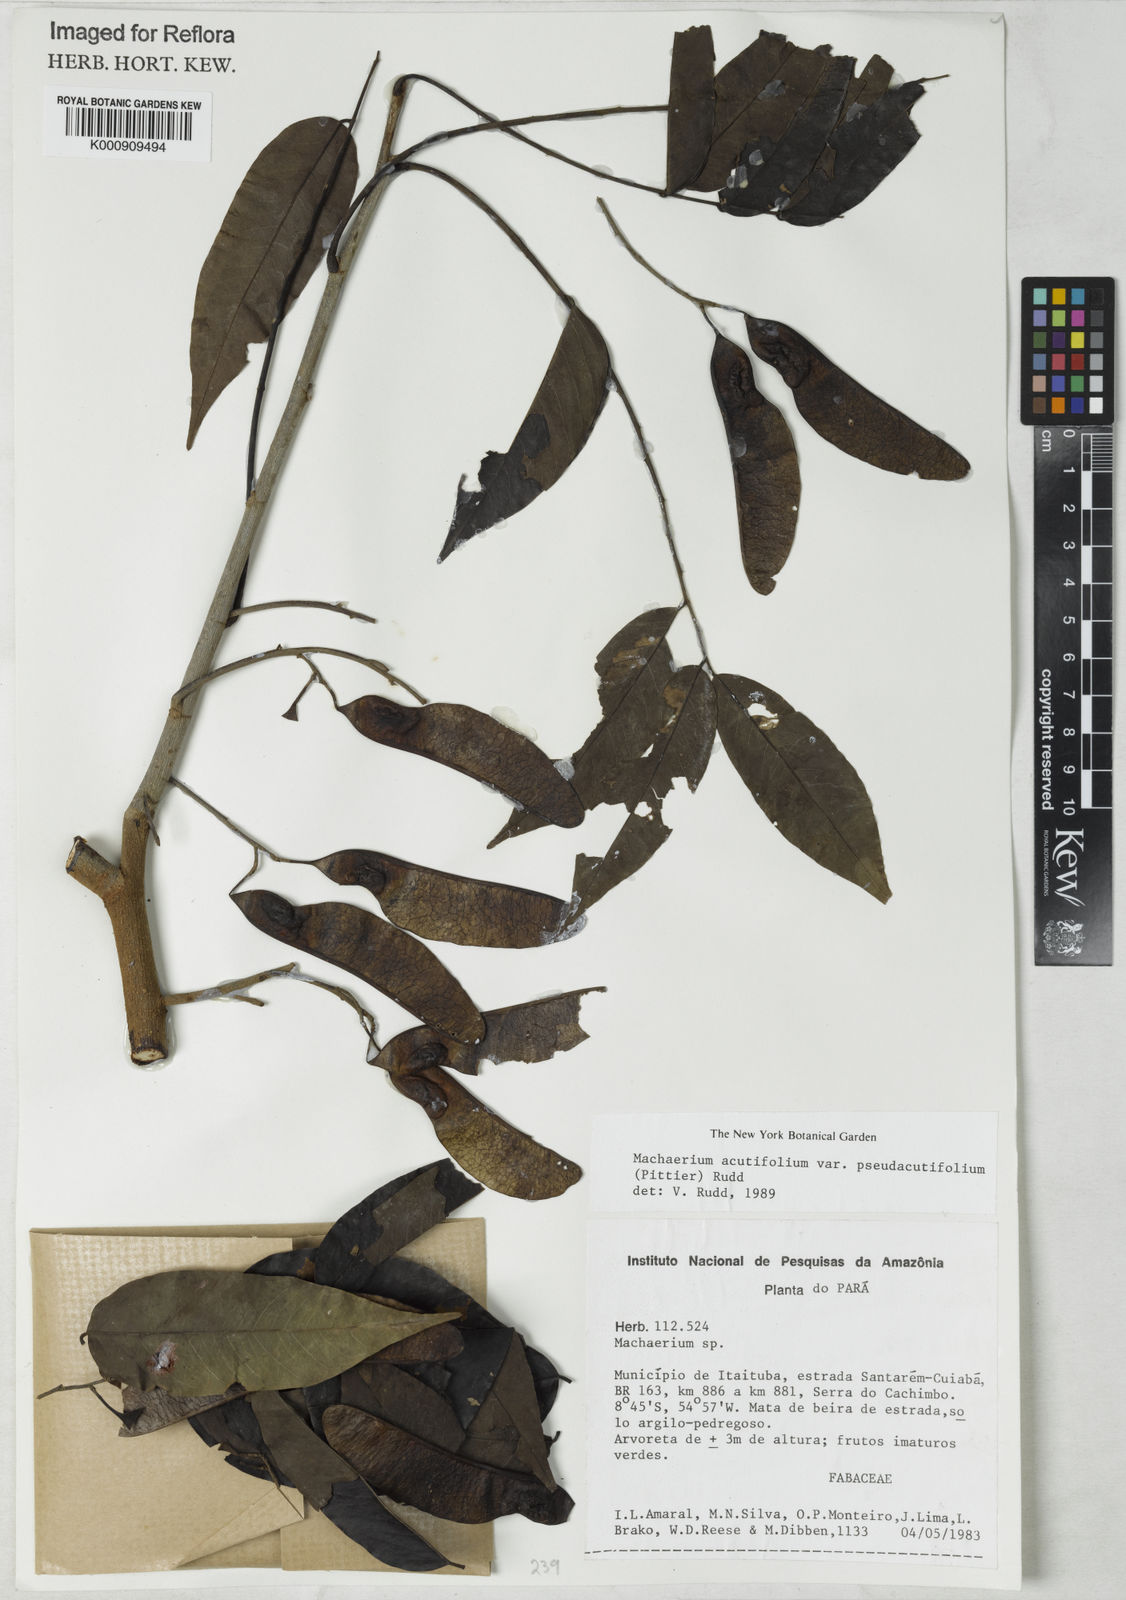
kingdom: Plantae
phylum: Tracheophyta
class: Magnoliopsida
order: Fabales
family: Fabaceae
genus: Machaerium
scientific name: Machaerium acutifolium
